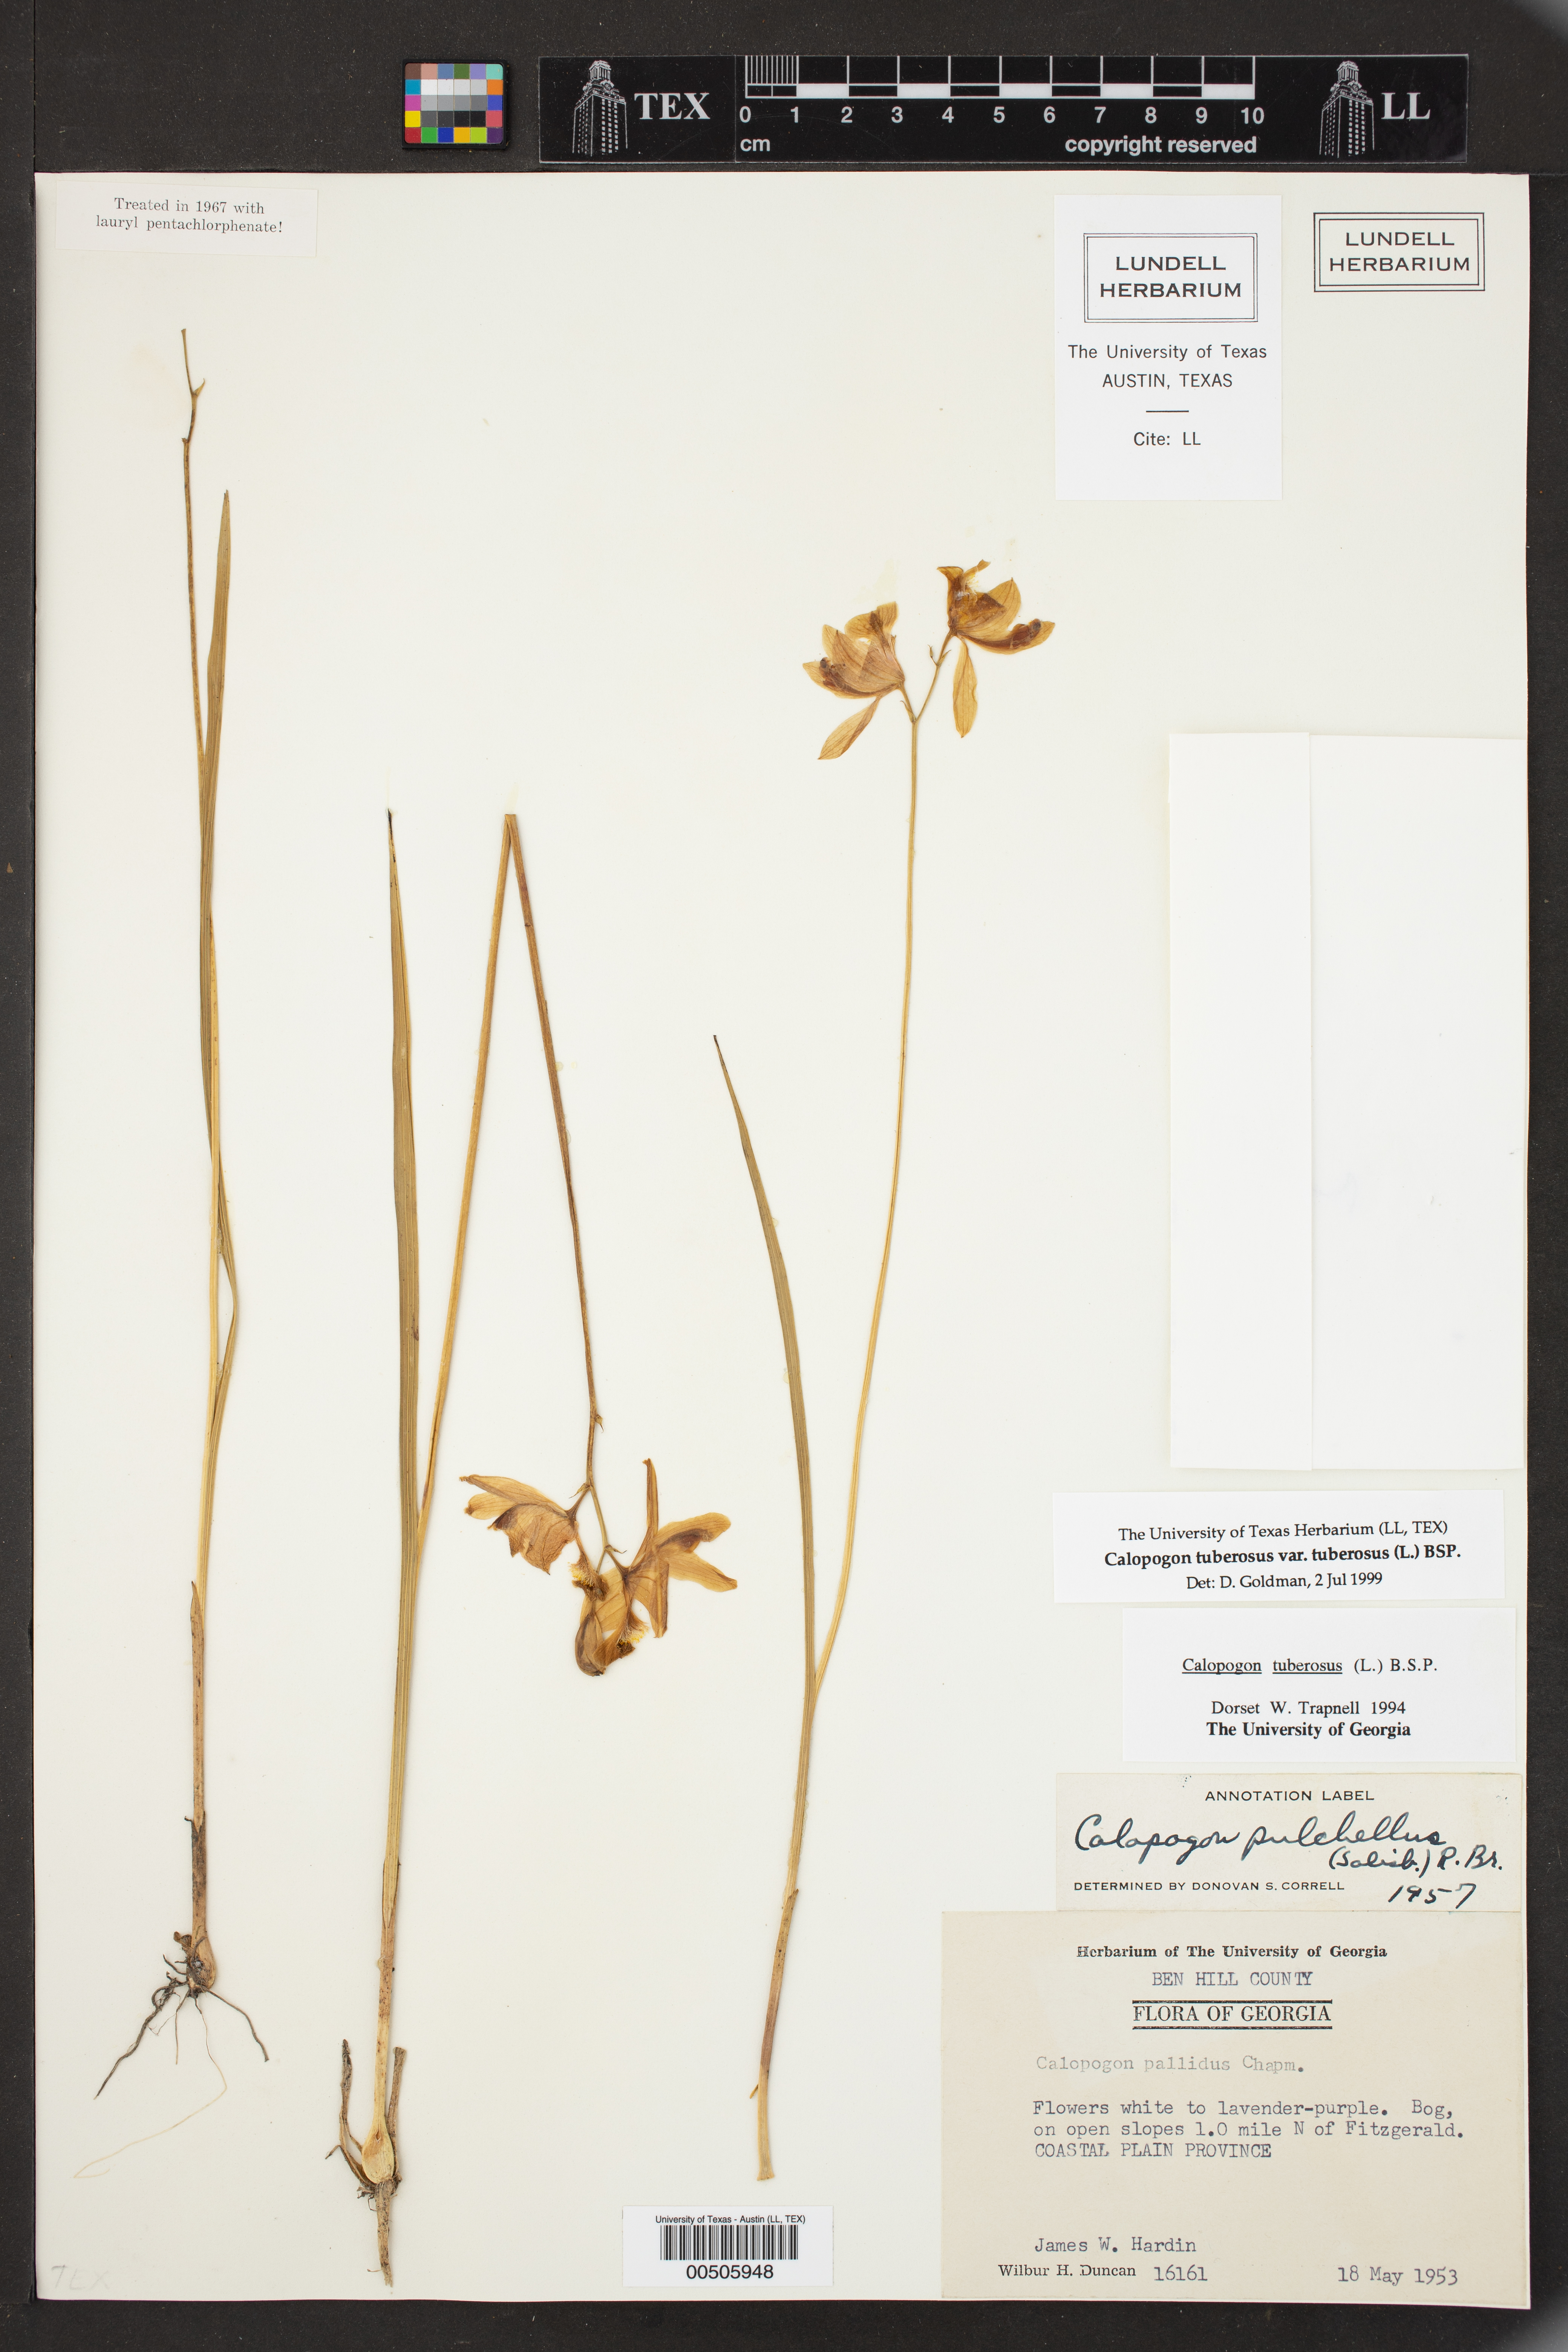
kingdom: Plantae
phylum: Tracheophyta
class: Liliopsida
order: Asparagales
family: Orchidaceae
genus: Calopogon
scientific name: Calopogon tuberosus
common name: Grass-pink
